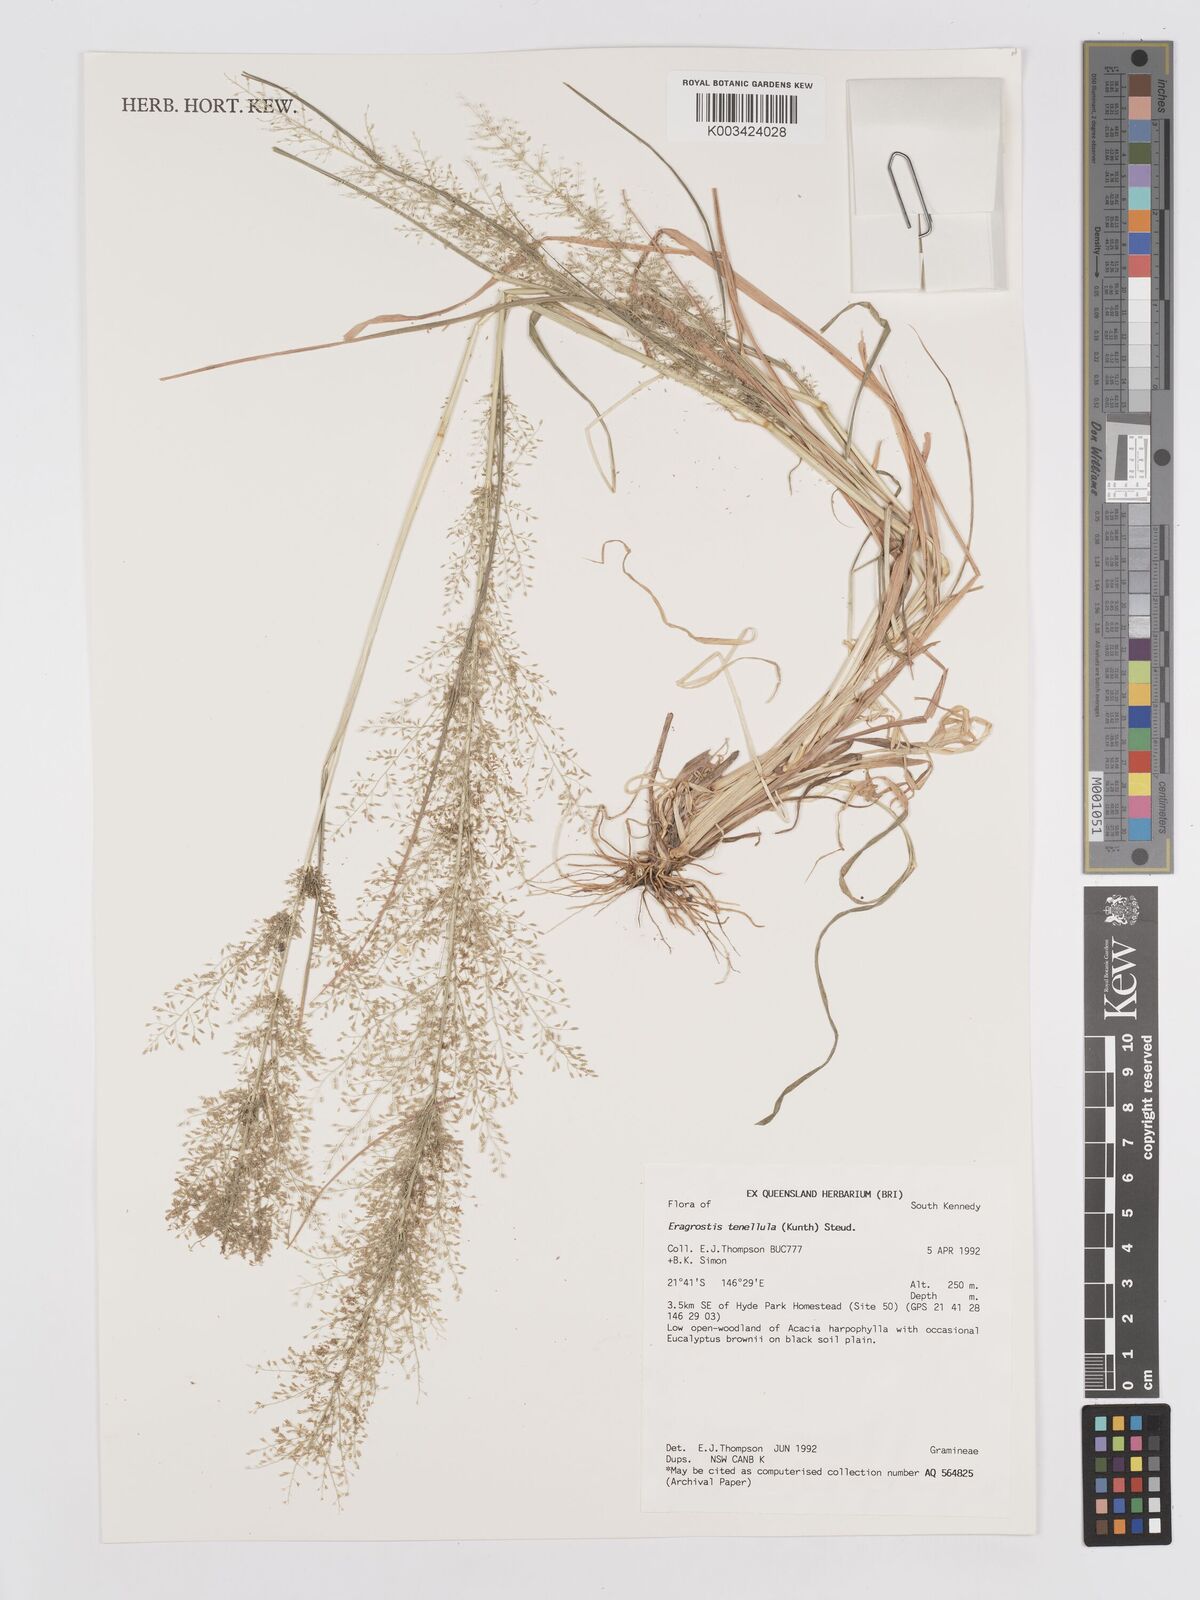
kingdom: Plantae
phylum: Tracheophyta
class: Liliopsida
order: Poales
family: Poaceae
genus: Eragrostis
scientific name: Eragrostis tenellula
